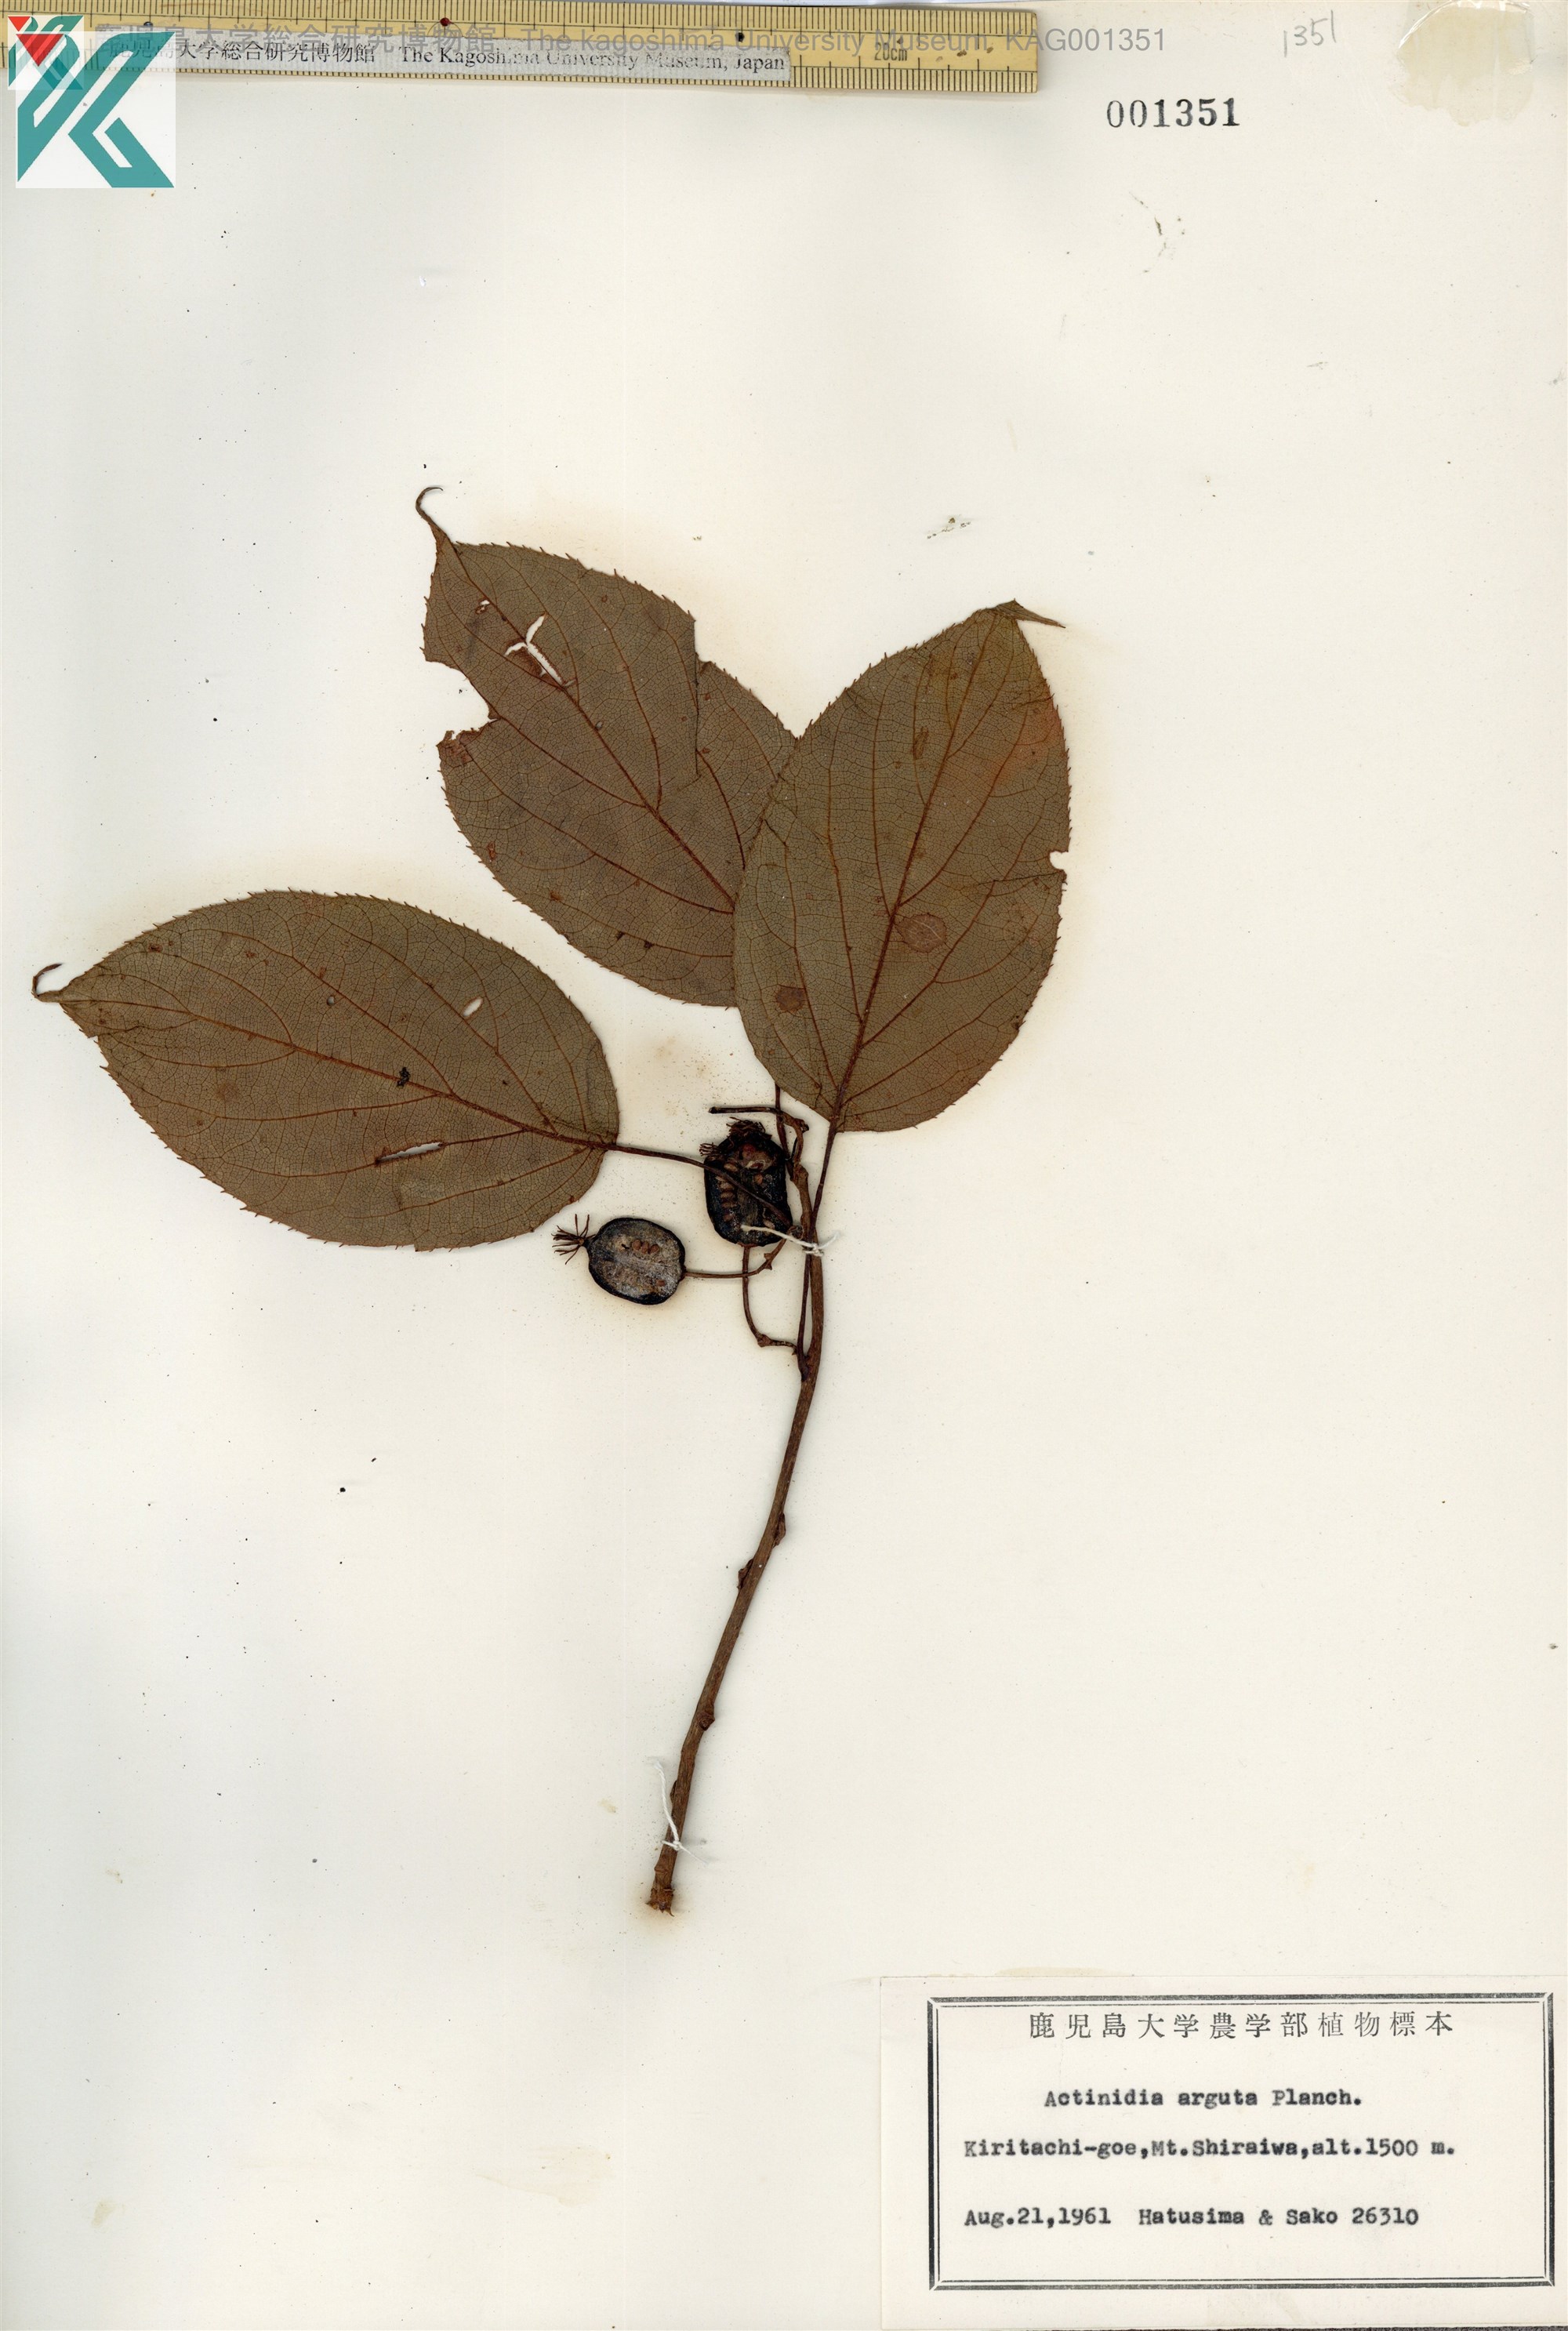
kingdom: Plantae
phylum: Tracheophyta
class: Magnoliopsida
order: Ericales
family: Actinidiaceae
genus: Actinidia
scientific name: Actinidia arguta
